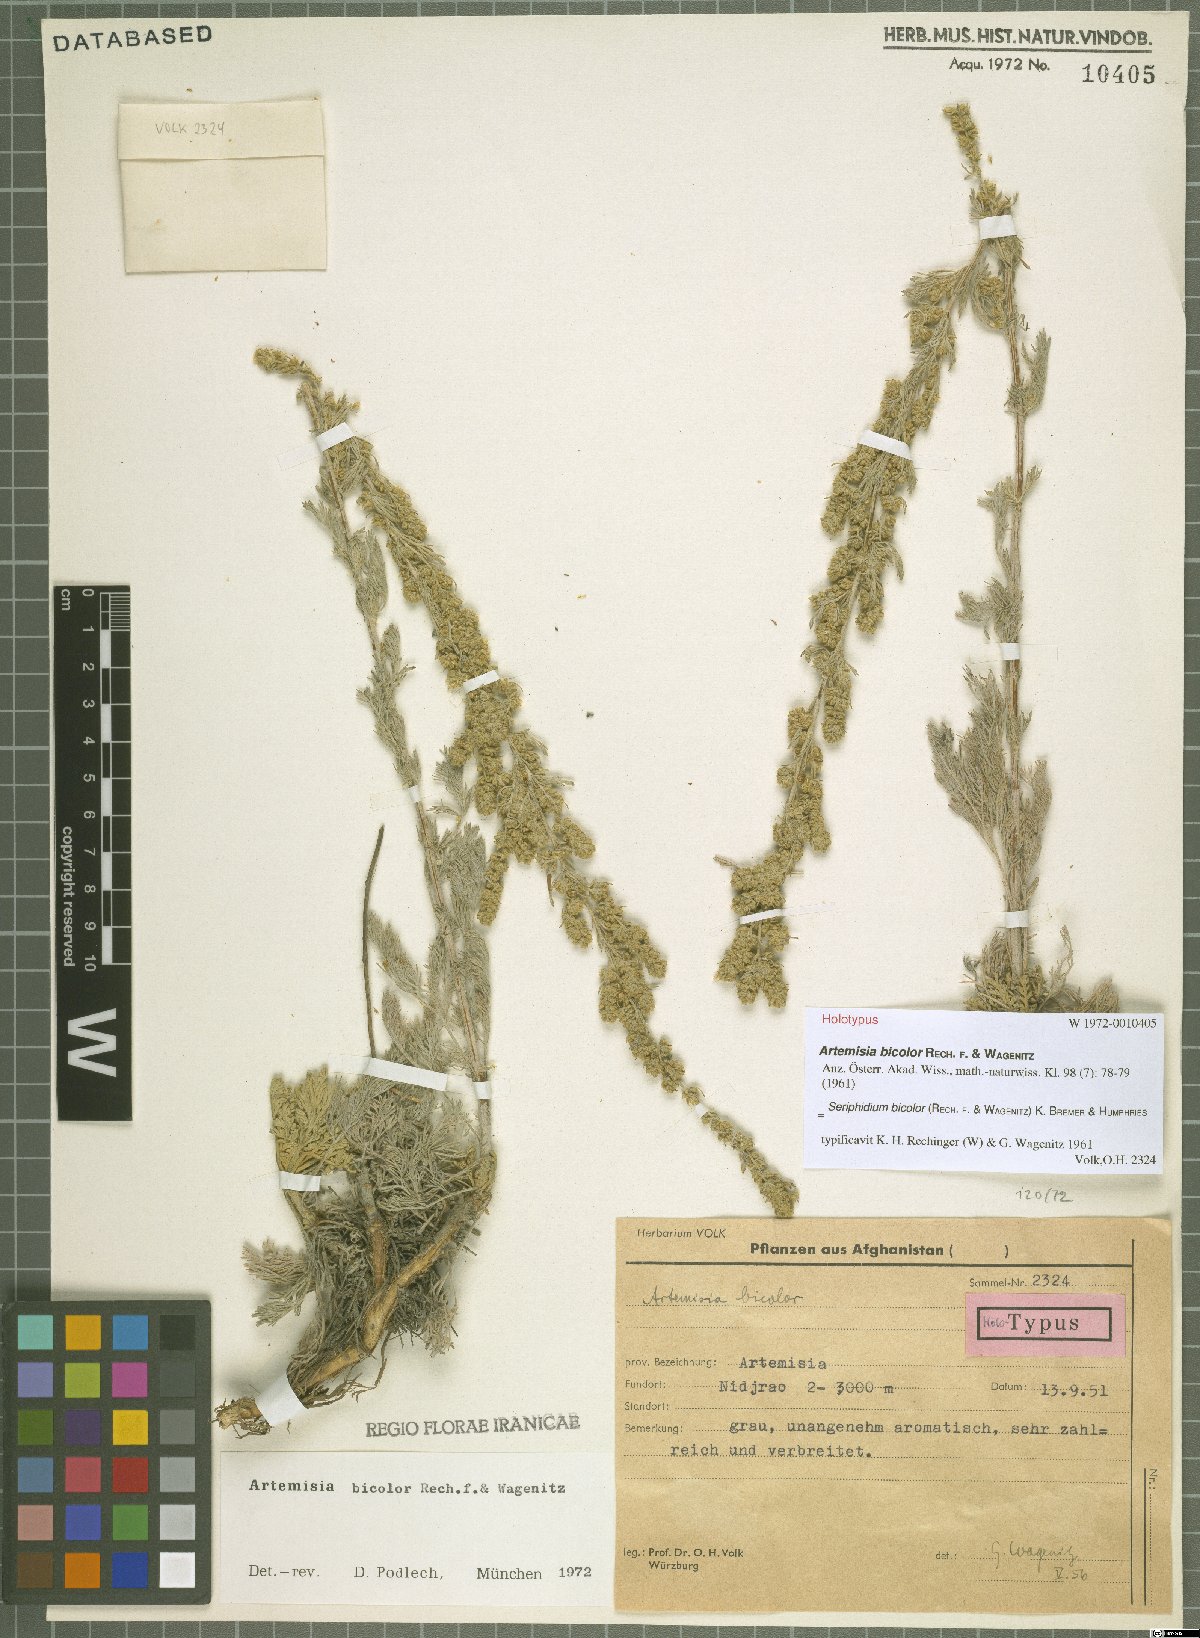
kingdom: Plantae
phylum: Tracheophyta
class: Magnoliopsida
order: Asterales
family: Asteraceae
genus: Artemisia
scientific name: Artemisia bicolor
